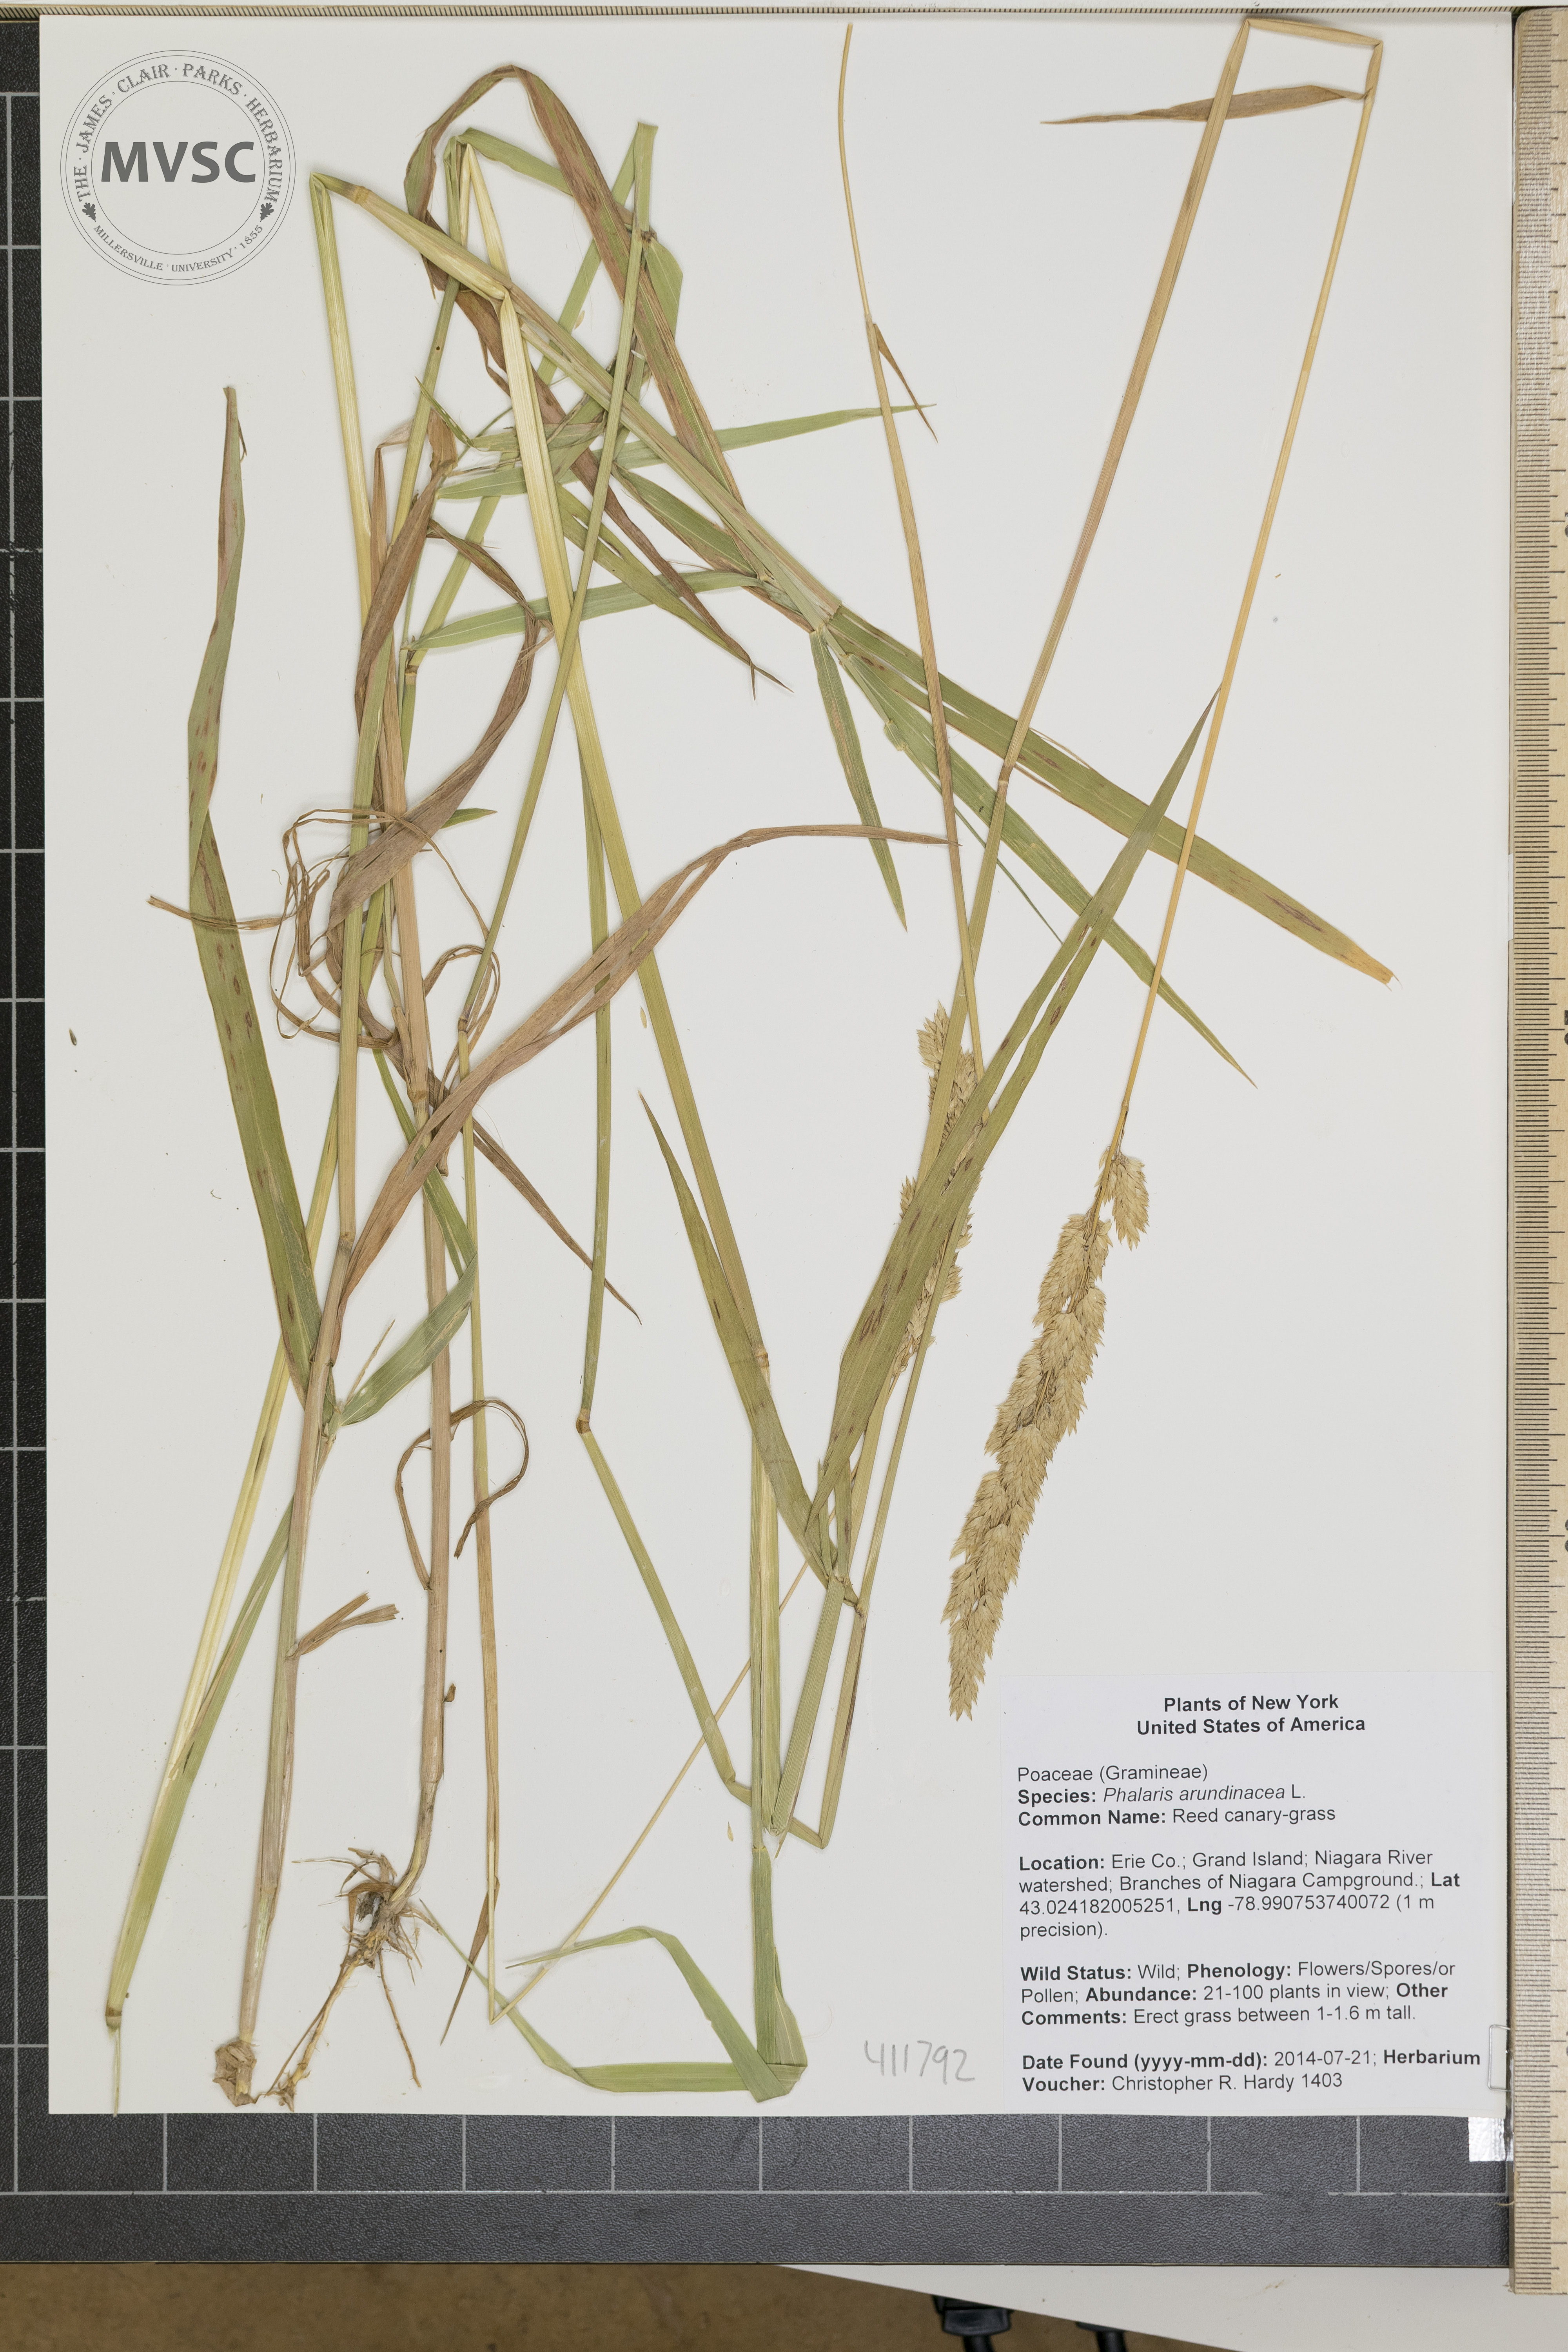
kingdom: Plantae
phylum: Tracheophyta
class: Liliopsida
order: Poales
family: Poaceae
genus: Phalaris
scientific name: Phalaris arundinacea
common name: Reed canary-grass
